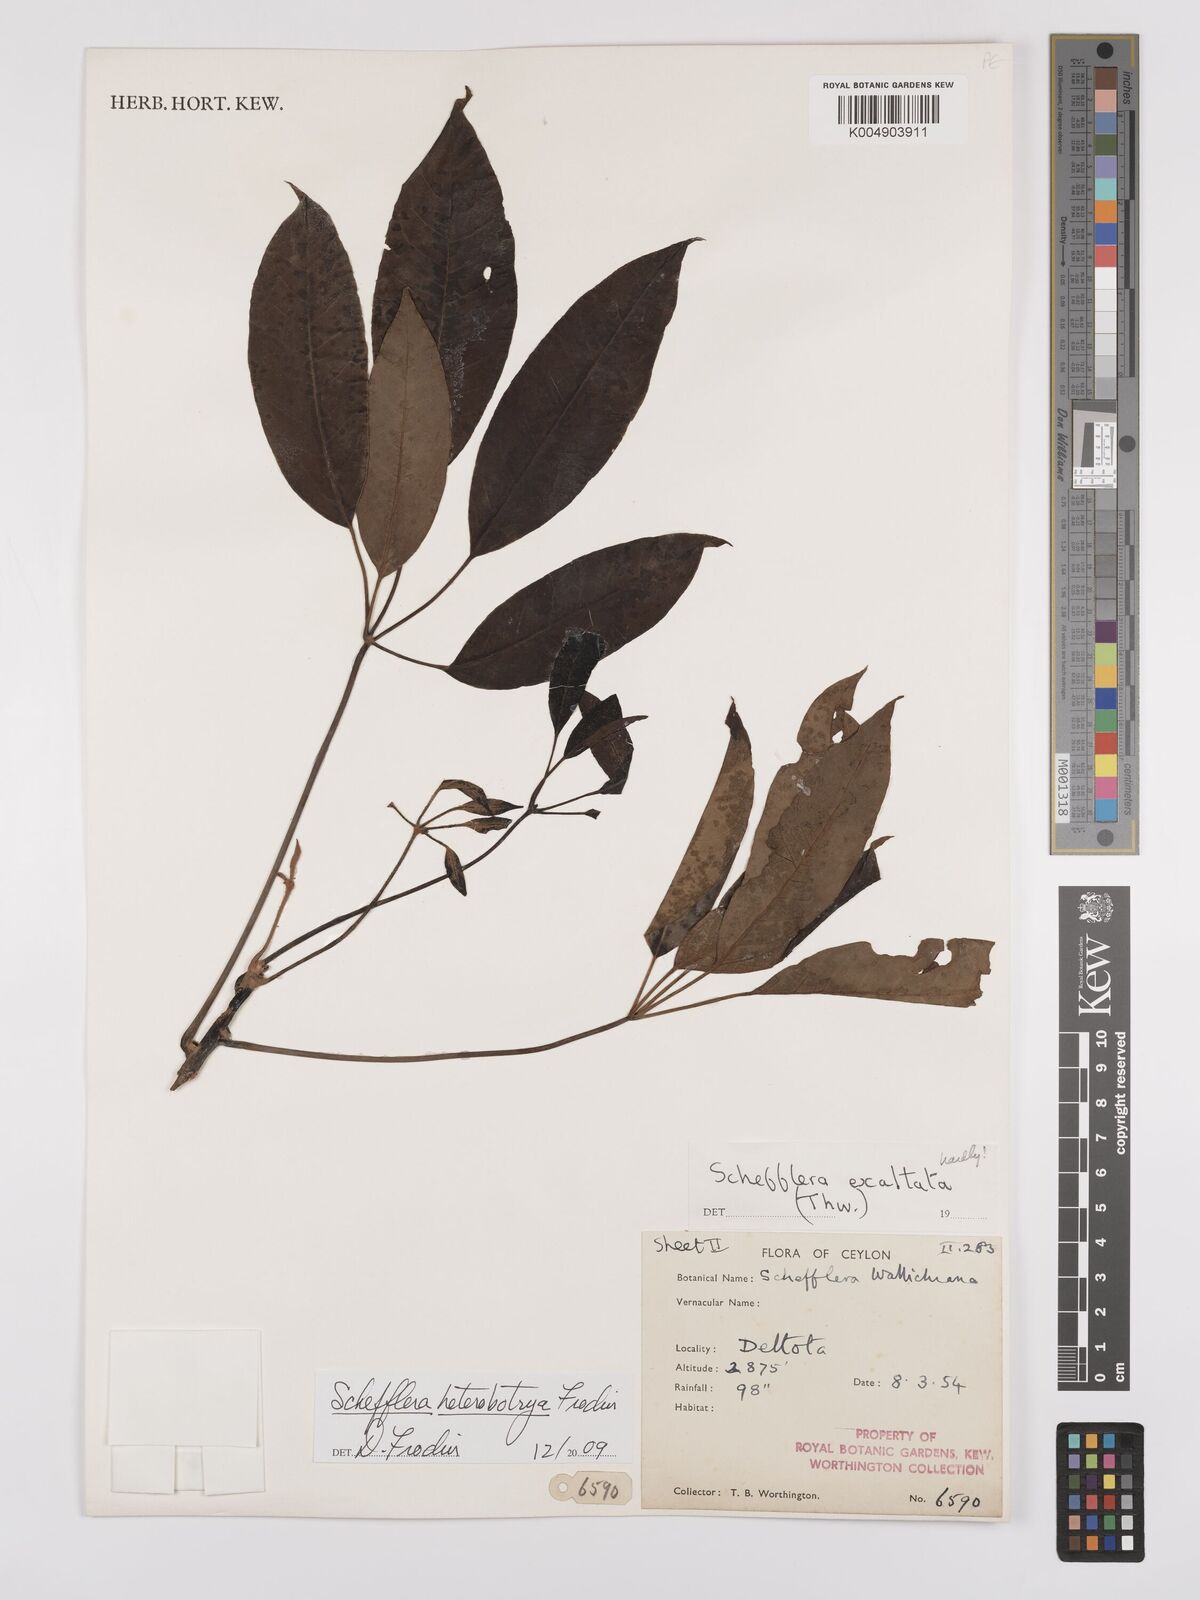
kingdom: Plantae
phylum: Tracheophyta
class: Magnoliopsida
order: Apiales
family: Araliaceae
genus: Heptapleurum
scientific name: Heptapleurum
